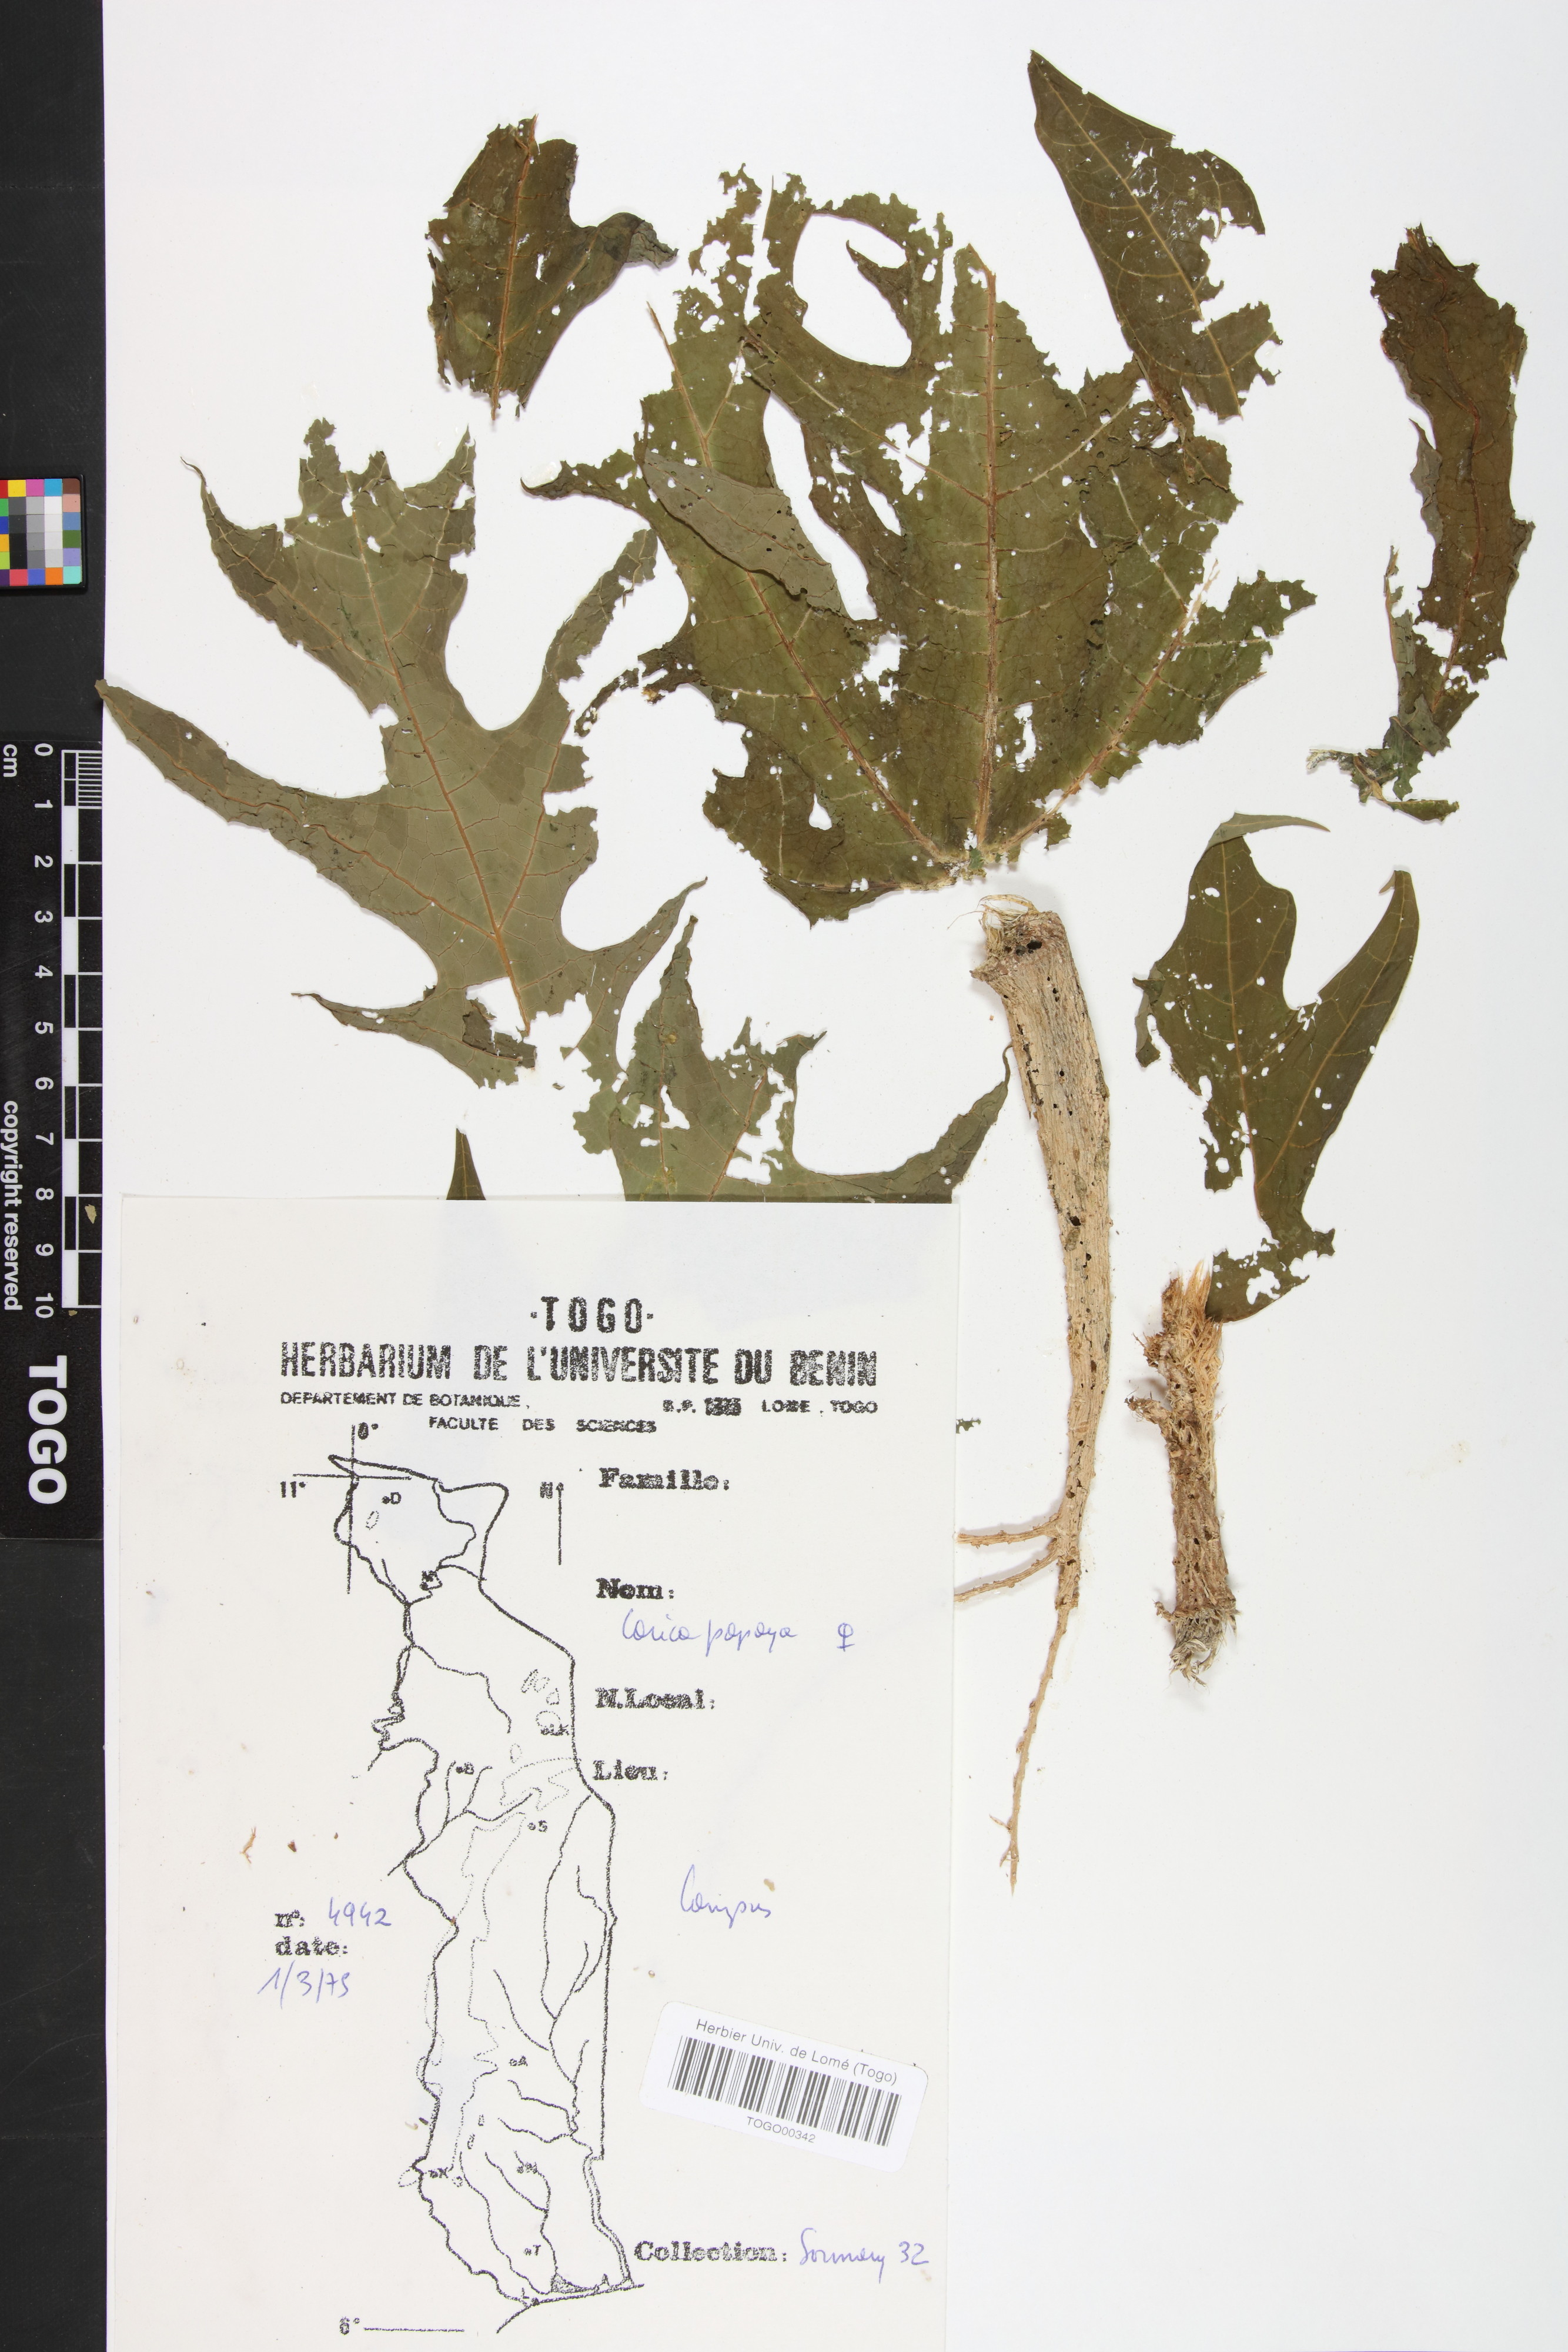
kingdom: Plantae
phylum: Tracheophyta
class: Magnoliopsida
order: Brassicales
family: Caricaceae
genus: Carica
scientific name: Carica papaya
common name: Papaya
